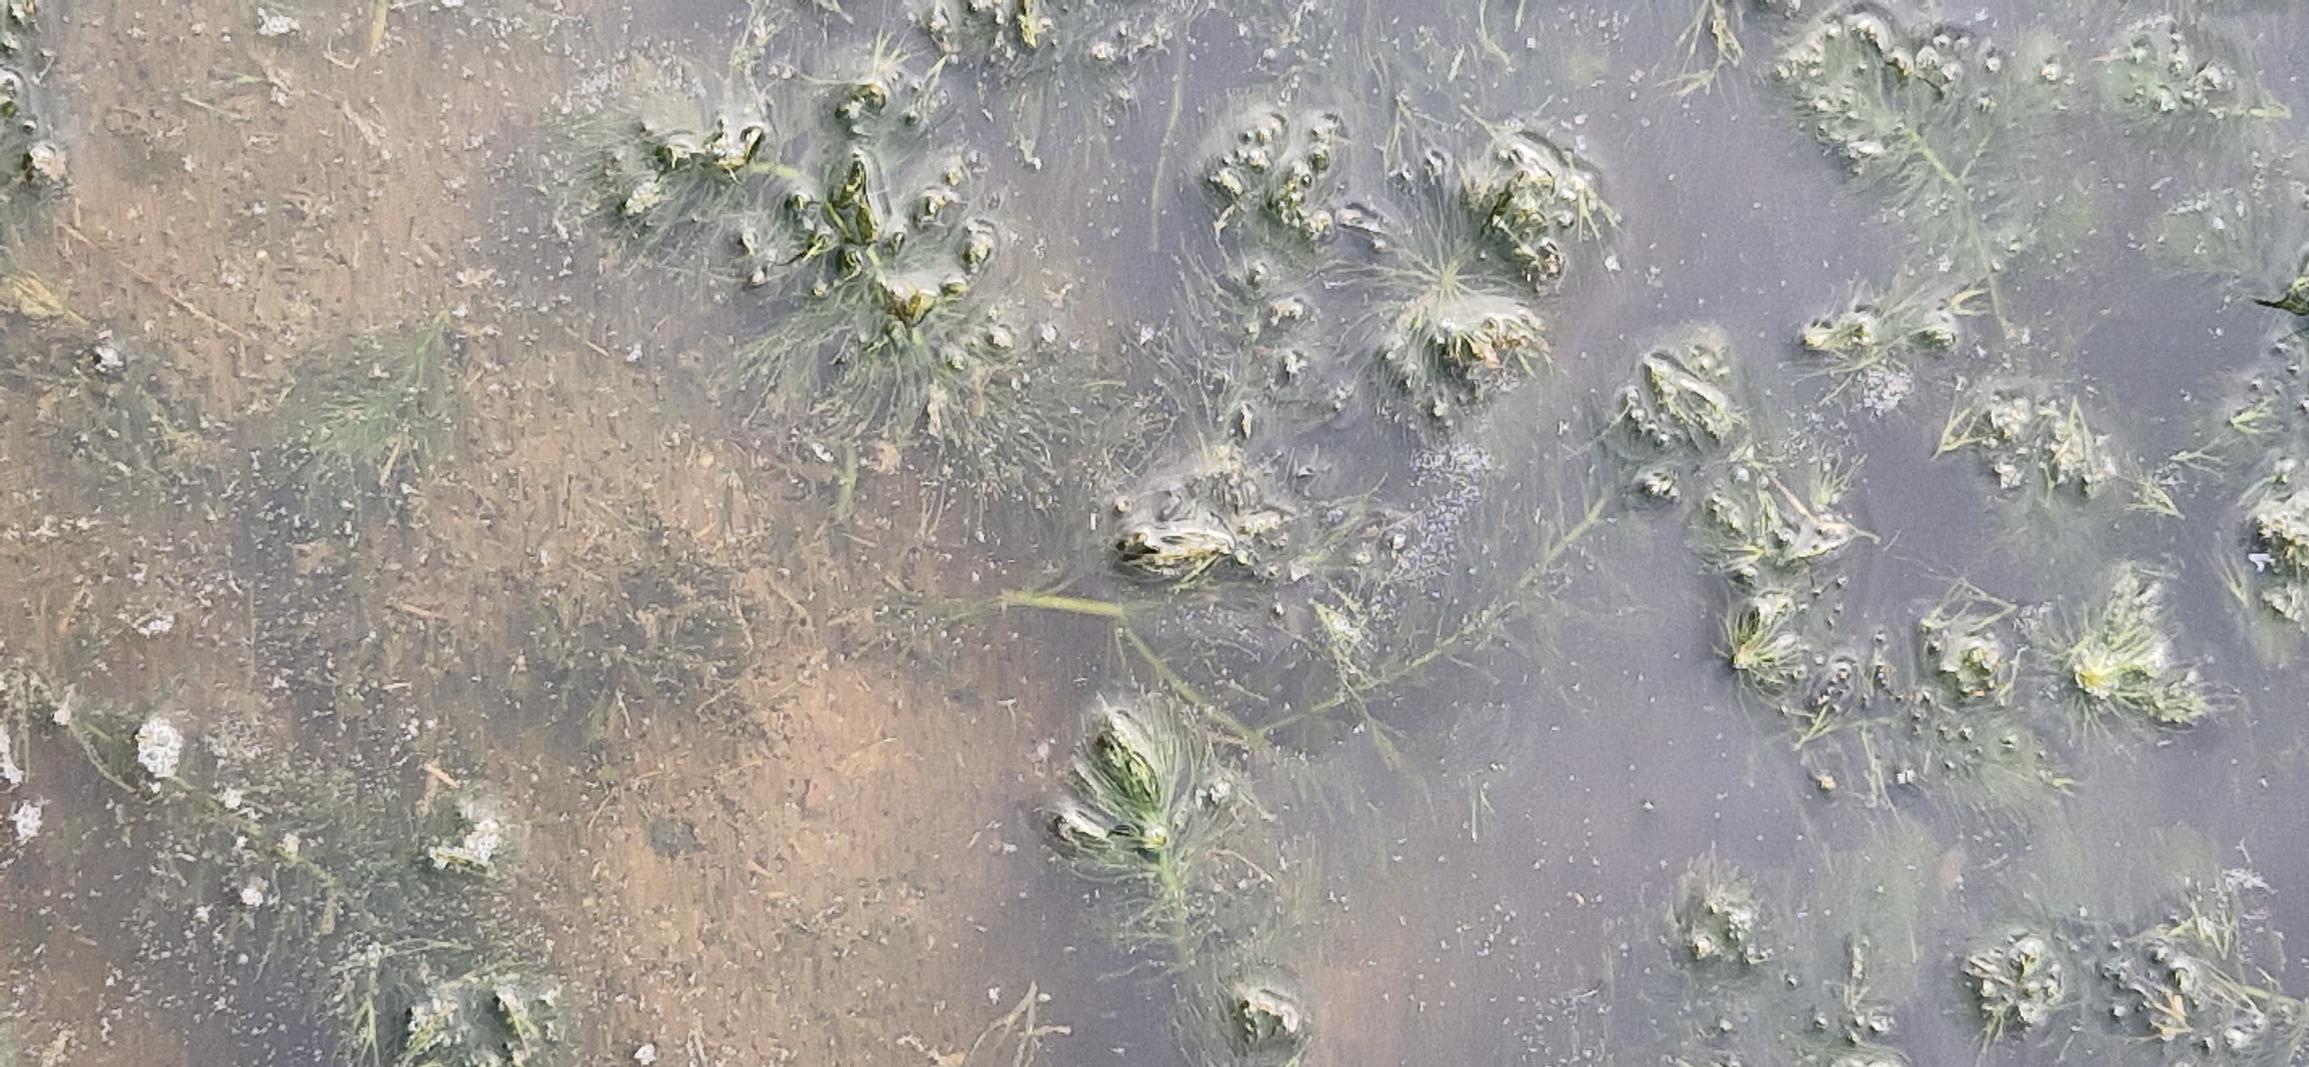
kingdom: Plantae
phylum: Tracheophyta
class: Magnoliopsida
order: Ceratophyllales
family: Ceratophyllaceae
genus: Ceratophyllum
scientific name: Ceratophyllum submersum
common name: Tornløs hornblad
